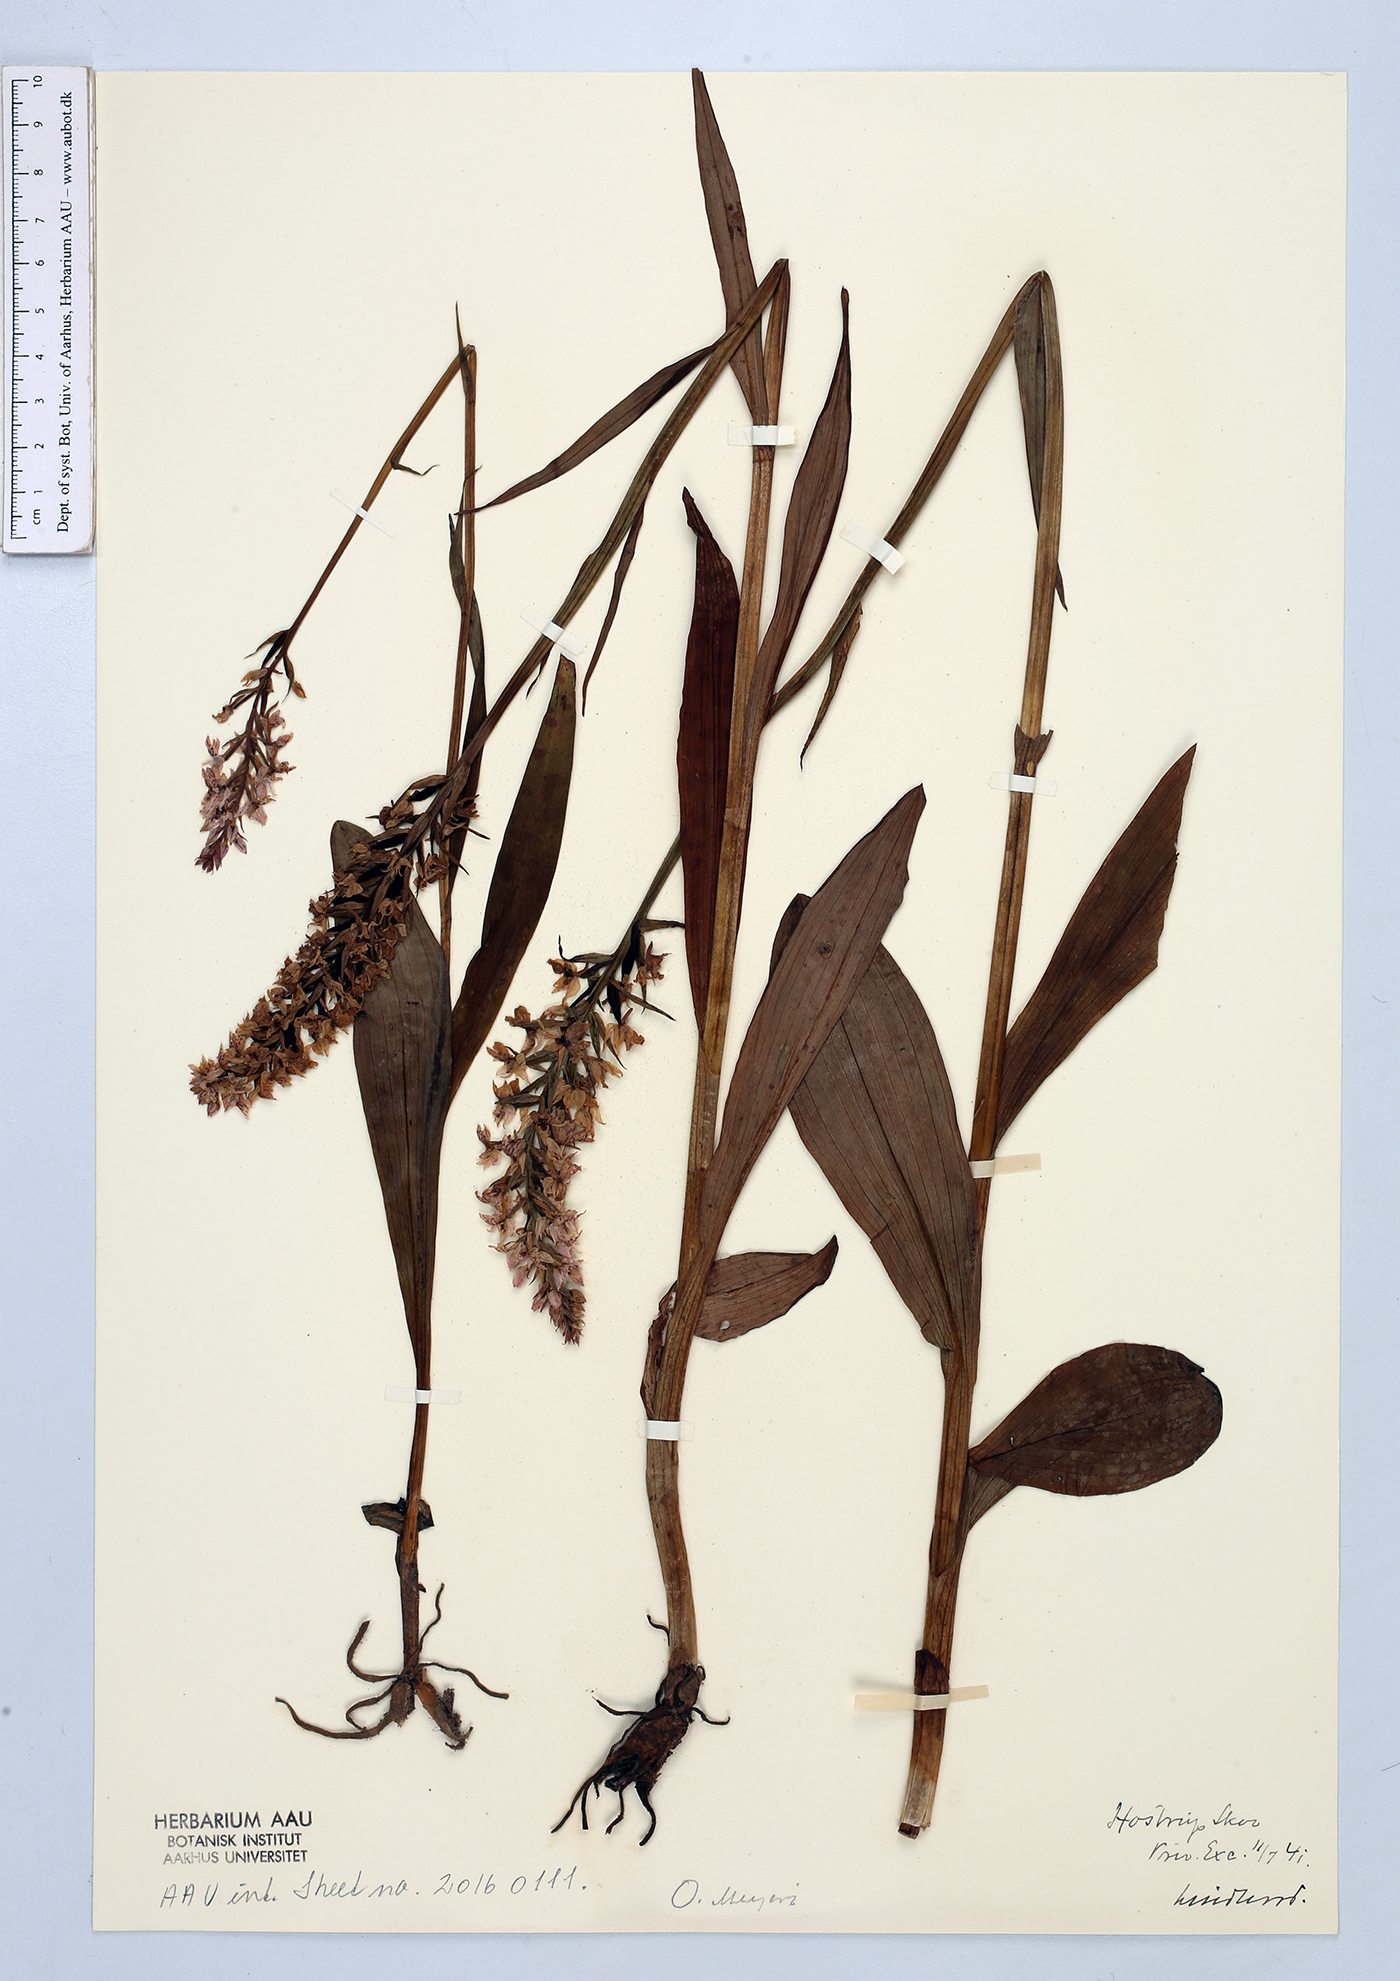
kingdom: Plantae
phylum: Tracheophyta
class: Liliopsida
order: Asparagales
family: Orchidaceae
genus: Dactylorhiza
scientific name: Dactylorhiza maculata
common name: Heath spotted-orchid
